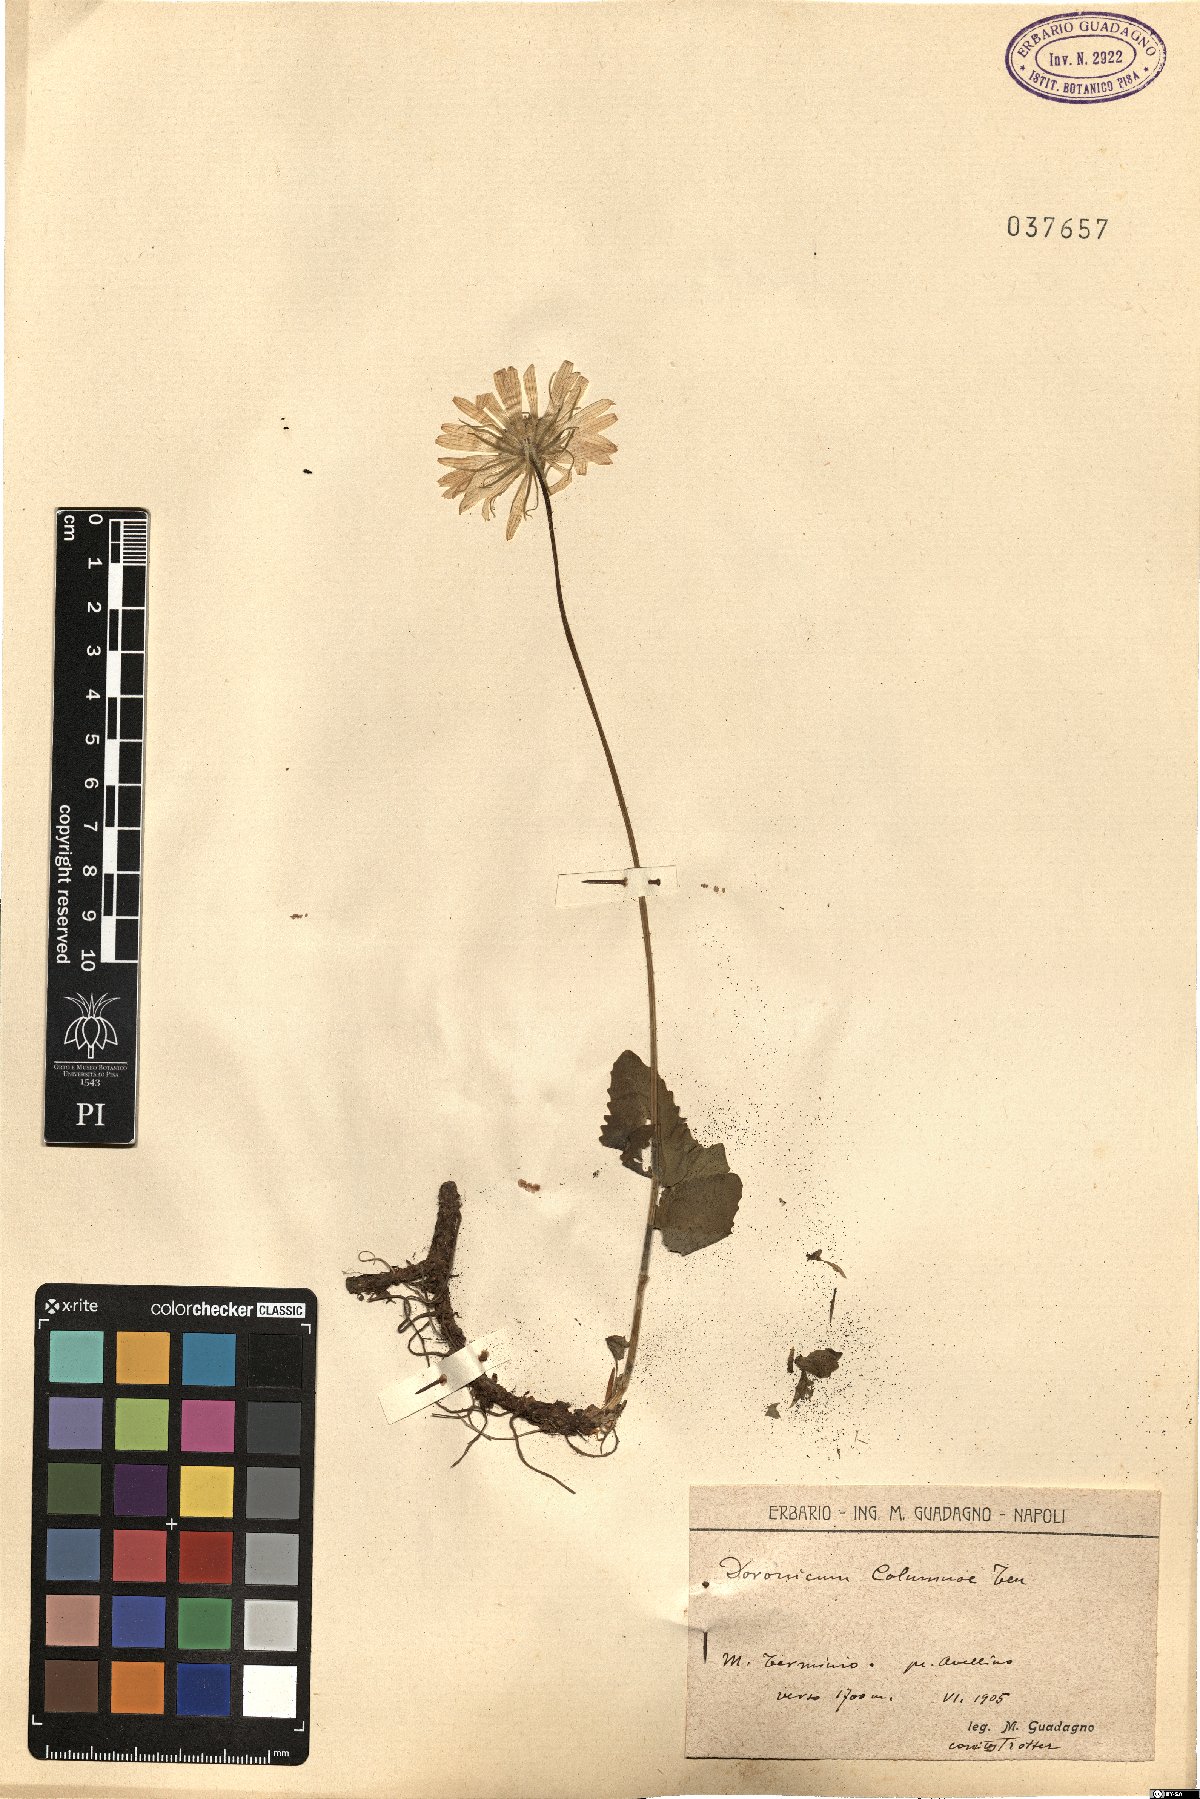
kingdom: Plantae
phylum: Tracheophyta
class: Magnoliopsida
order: Asterales
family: Asteraceae
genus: Doronicum
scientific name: Doronicum columnae
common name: Eastern leopard's-bane
